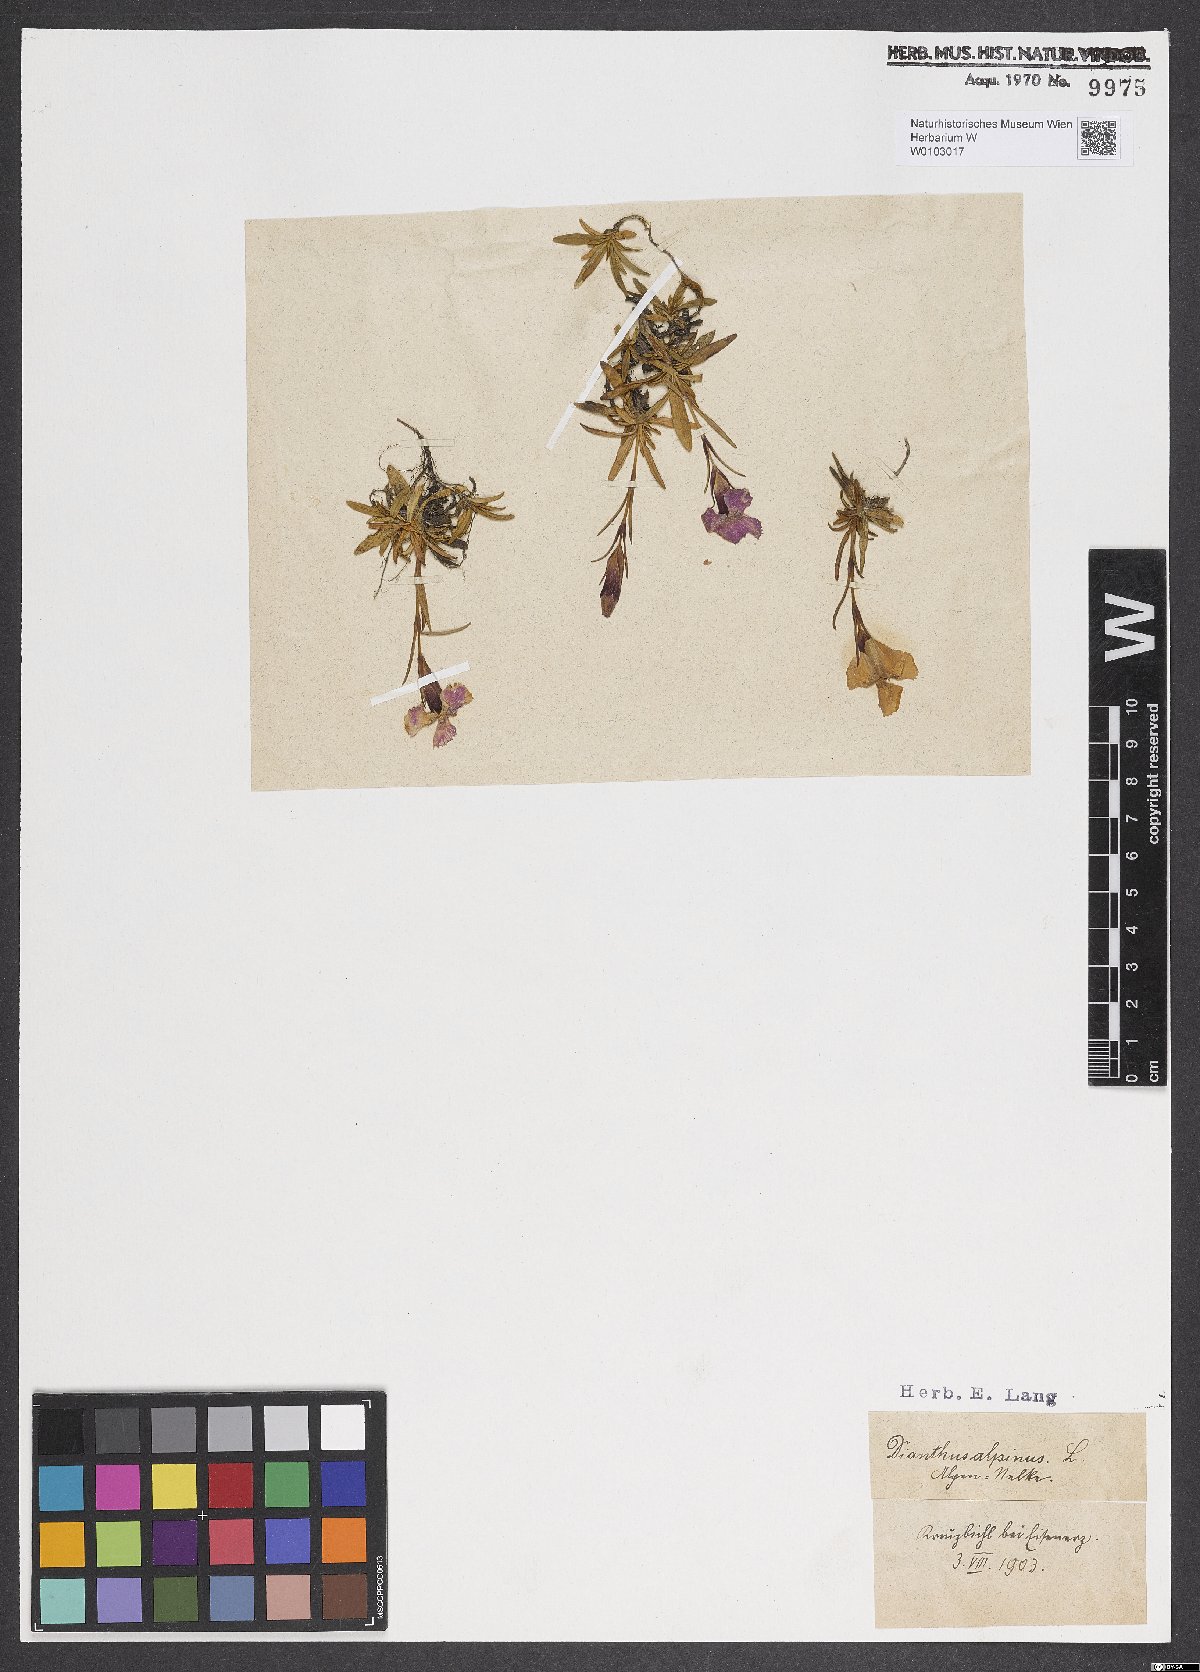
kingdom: Plantae
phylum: Tracheophyta
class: Magnoliopsida
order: Caryophyllales
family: Caryophyllaceae
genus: Dianthus
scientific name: Dianthus alpinus
